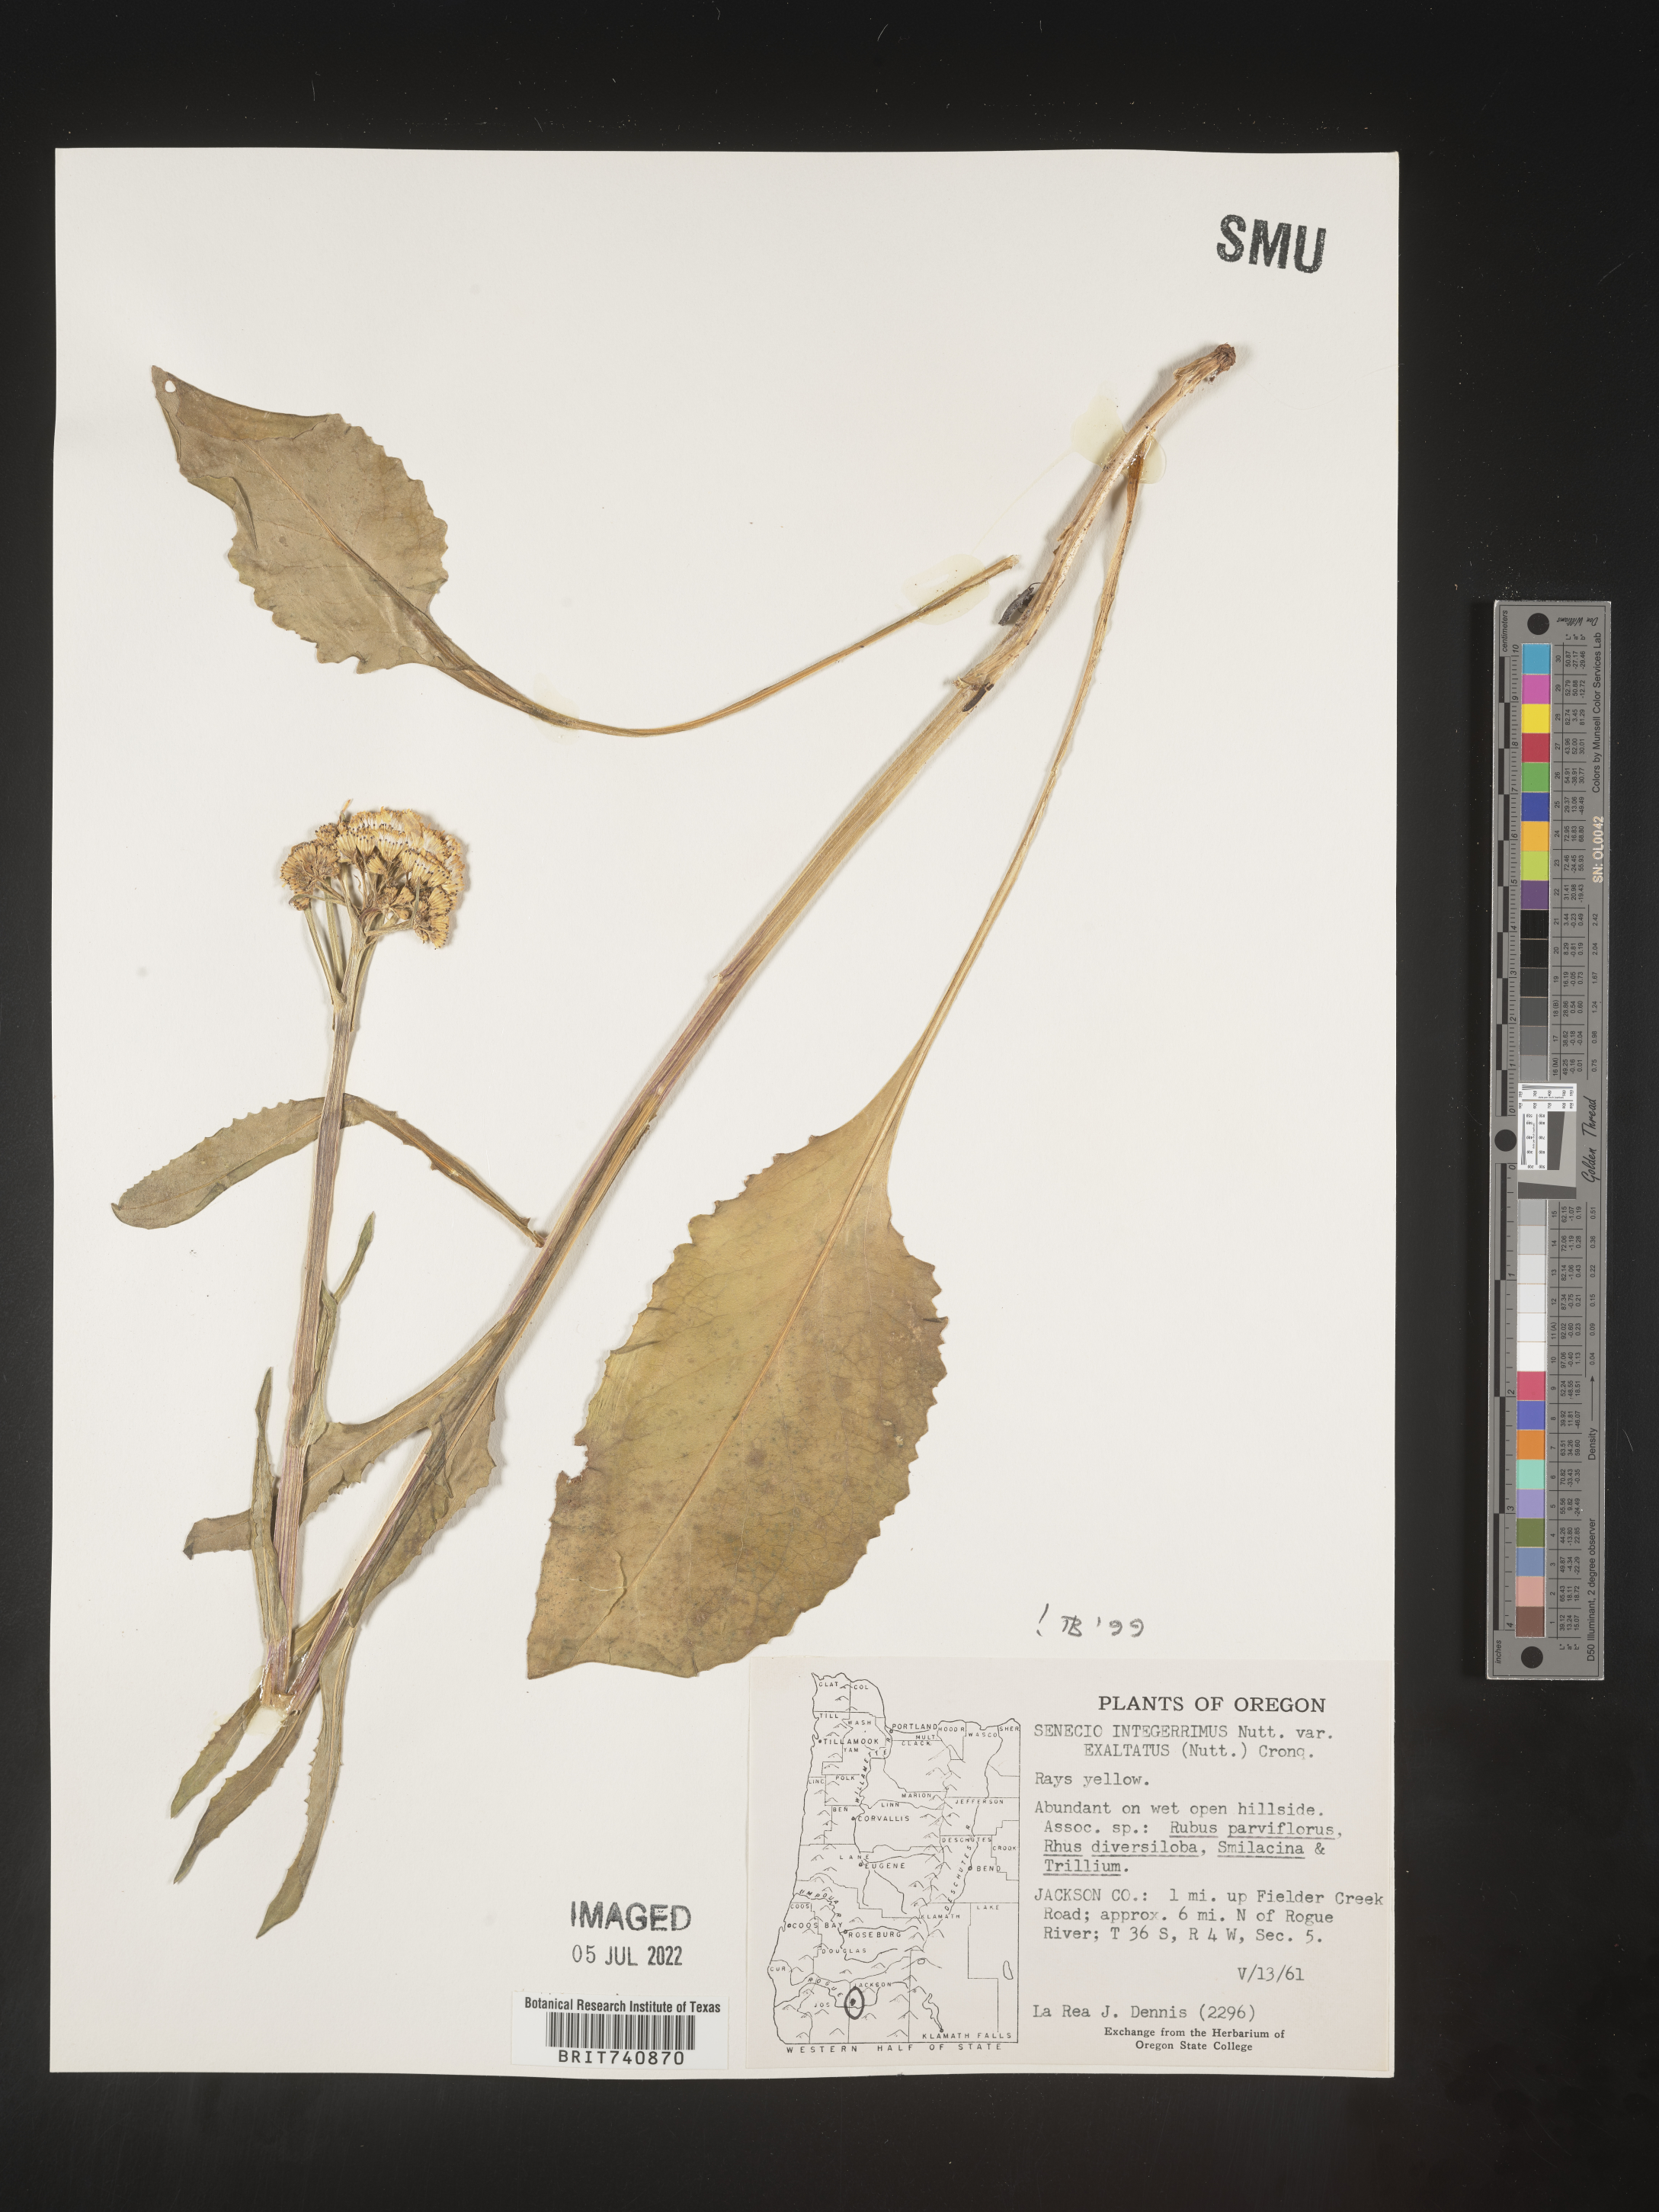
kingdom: Plantae
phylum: Tracheophyta
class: Magnoliopsida
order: Asterales
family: Asteraceae
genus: Senecio
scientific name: Senecio integerrimus
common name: Gaugeplant
